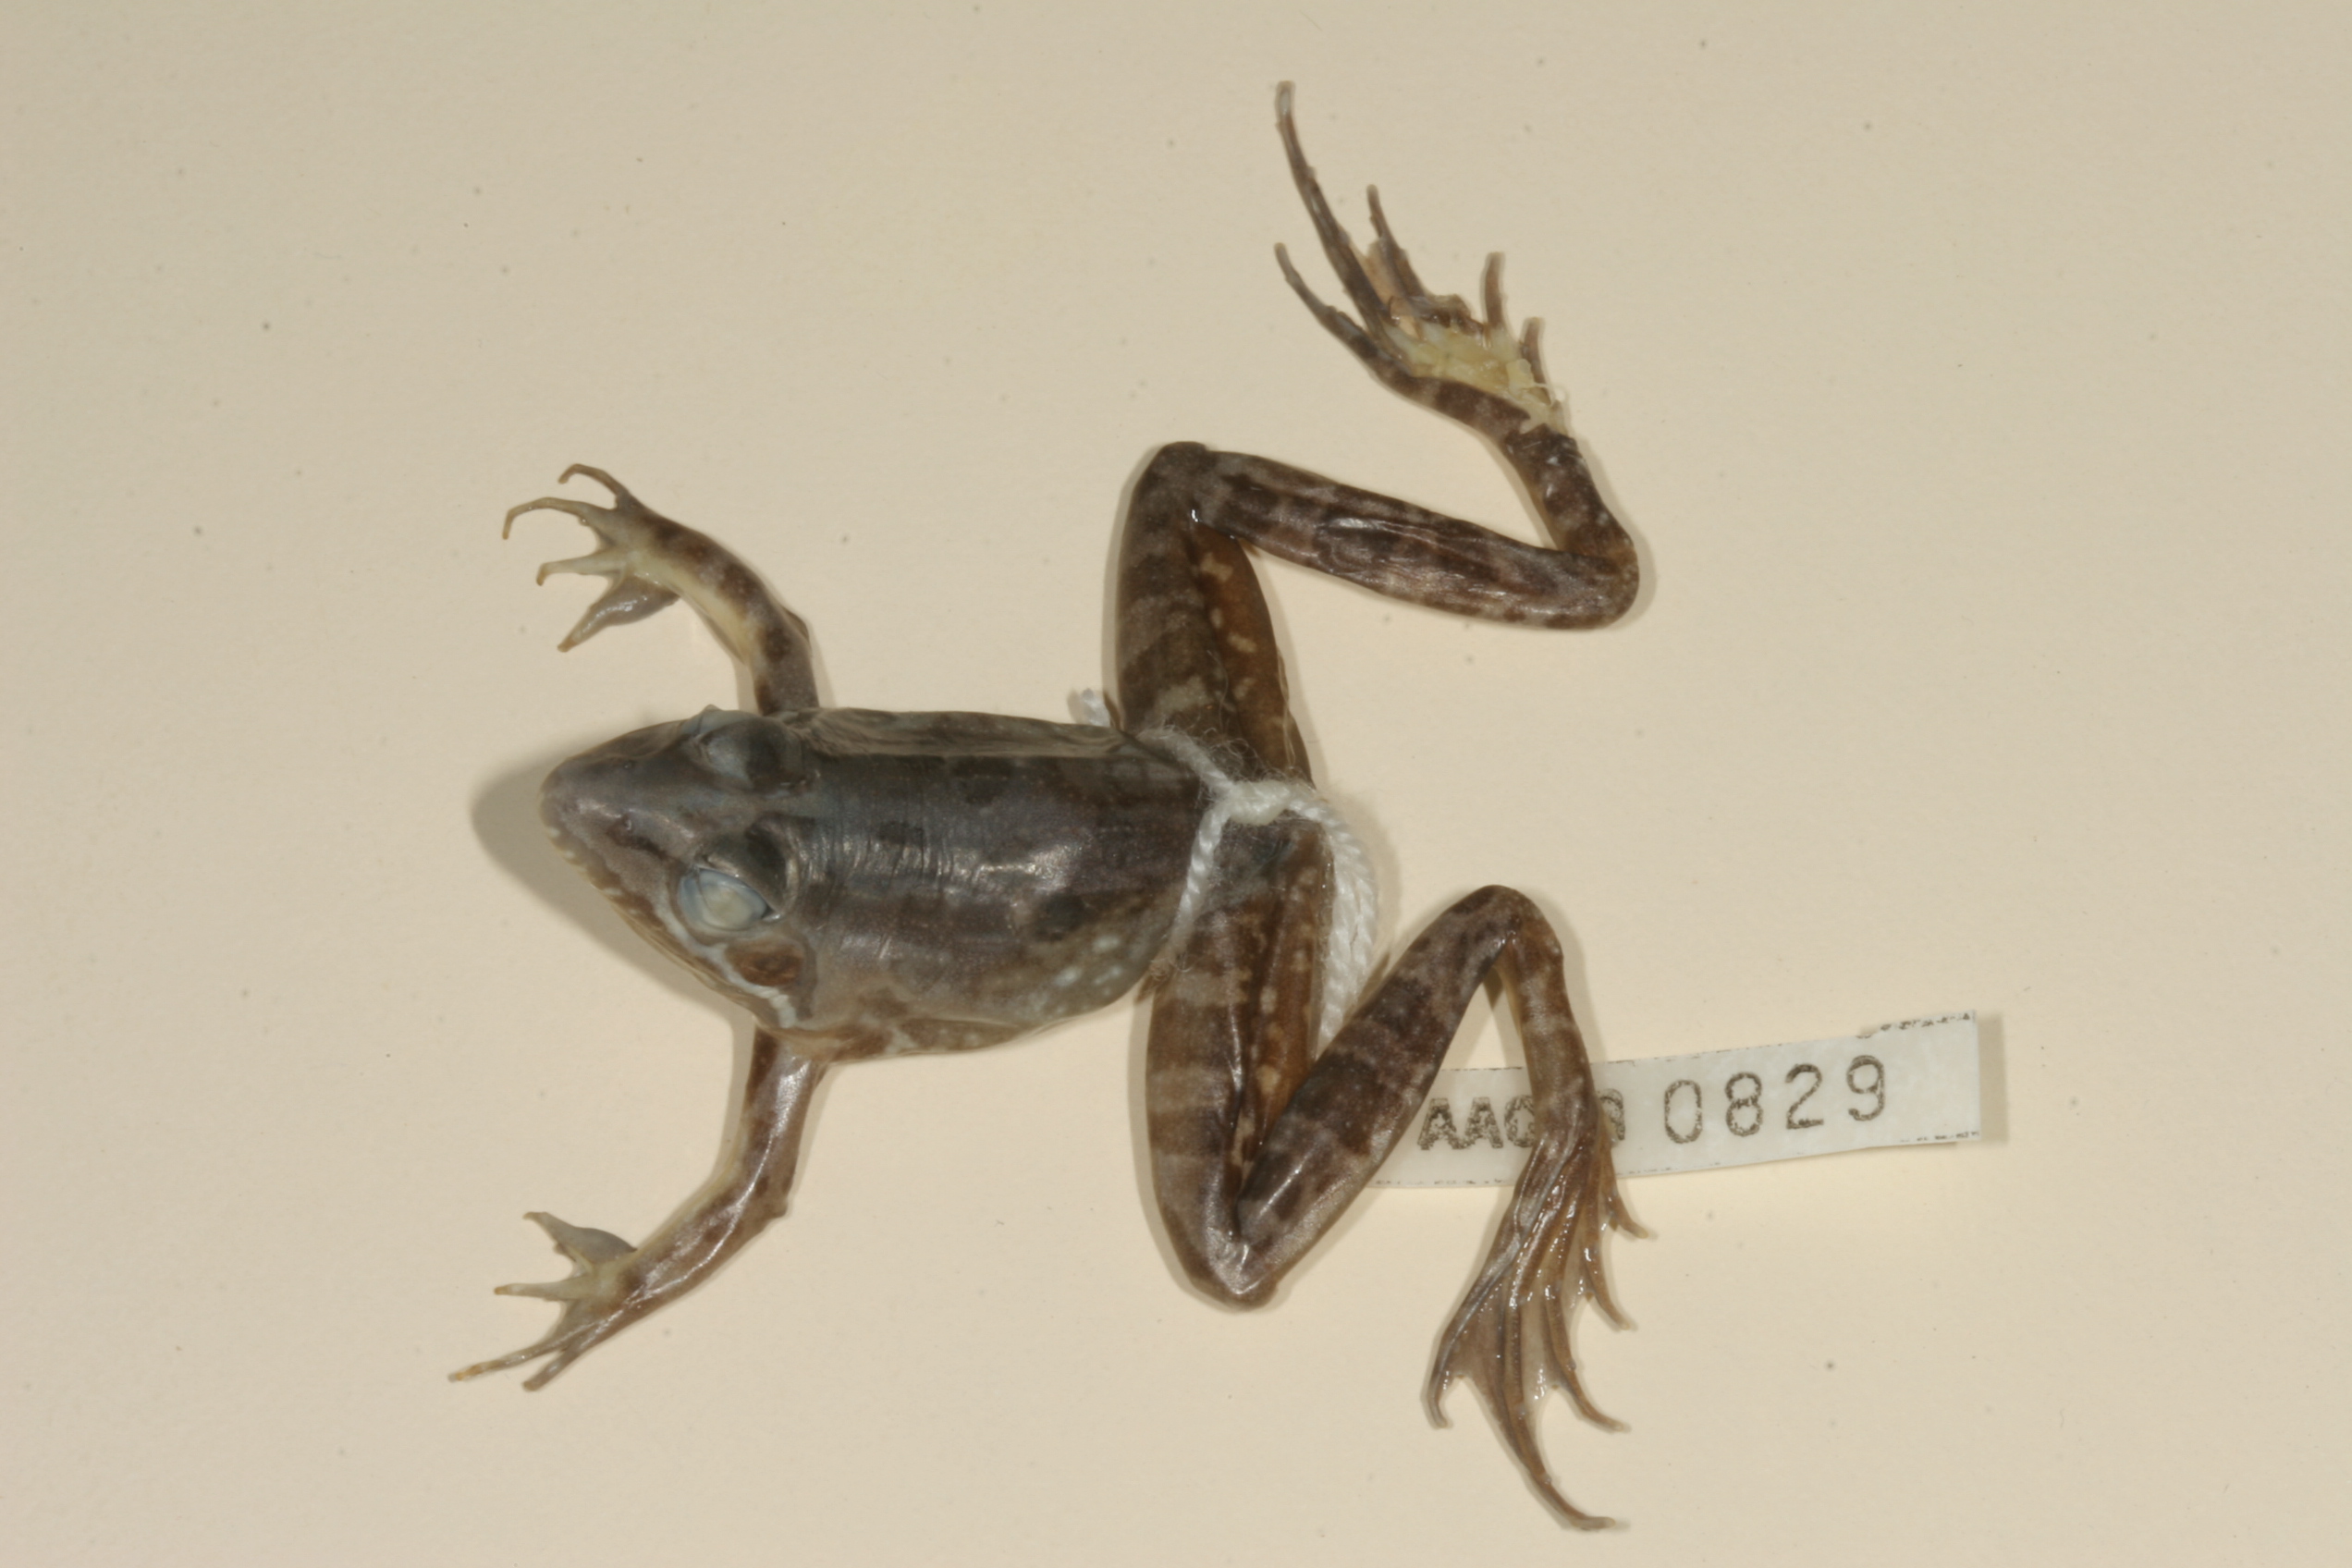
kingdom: Animalia
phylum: Chordata
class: Amphibia
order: Anura
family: Pyxicephalidae
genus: Amietia
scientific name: Amietia angolensis
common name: Dusky-throated frog
